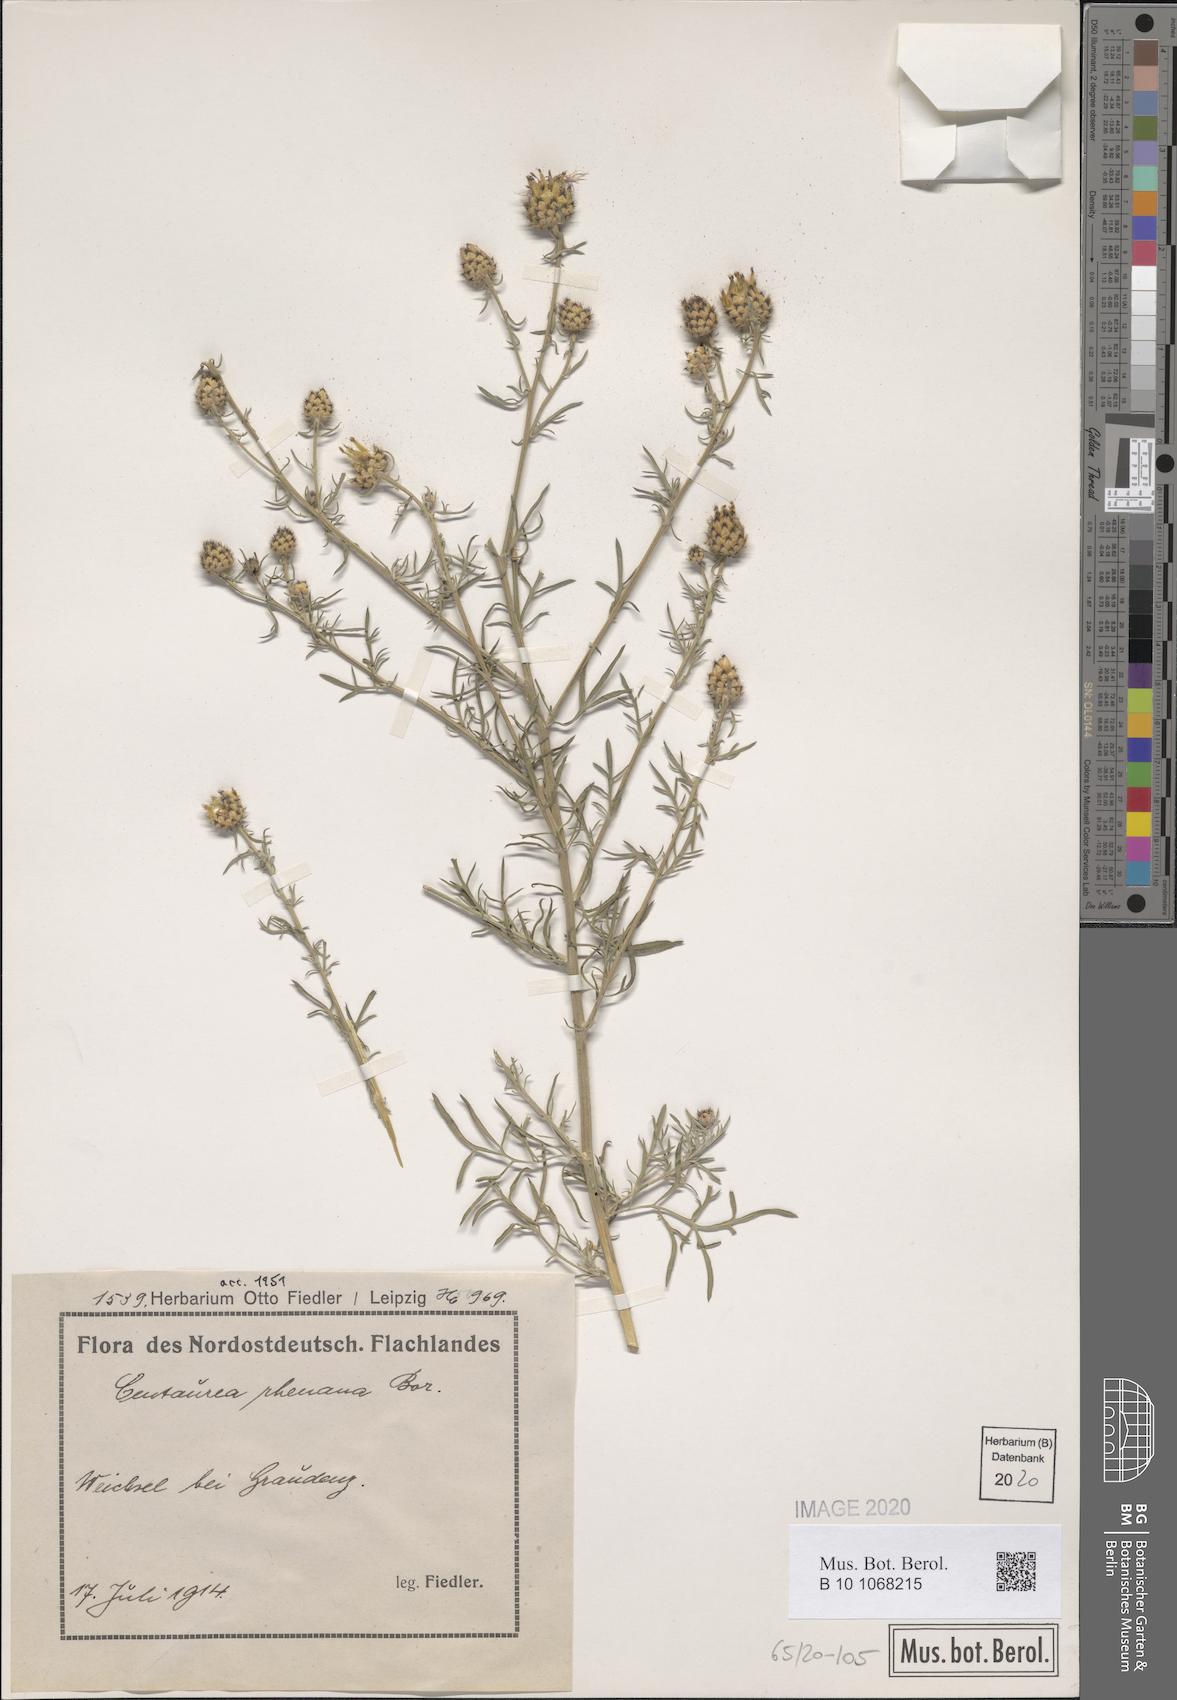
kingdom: Plantae
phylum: Tracheophyta
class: Magnoliopsida
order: Asterales
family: Asteraceae
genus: Centaurea
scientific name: Centaurea stoebe
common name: Spotted knapweed
